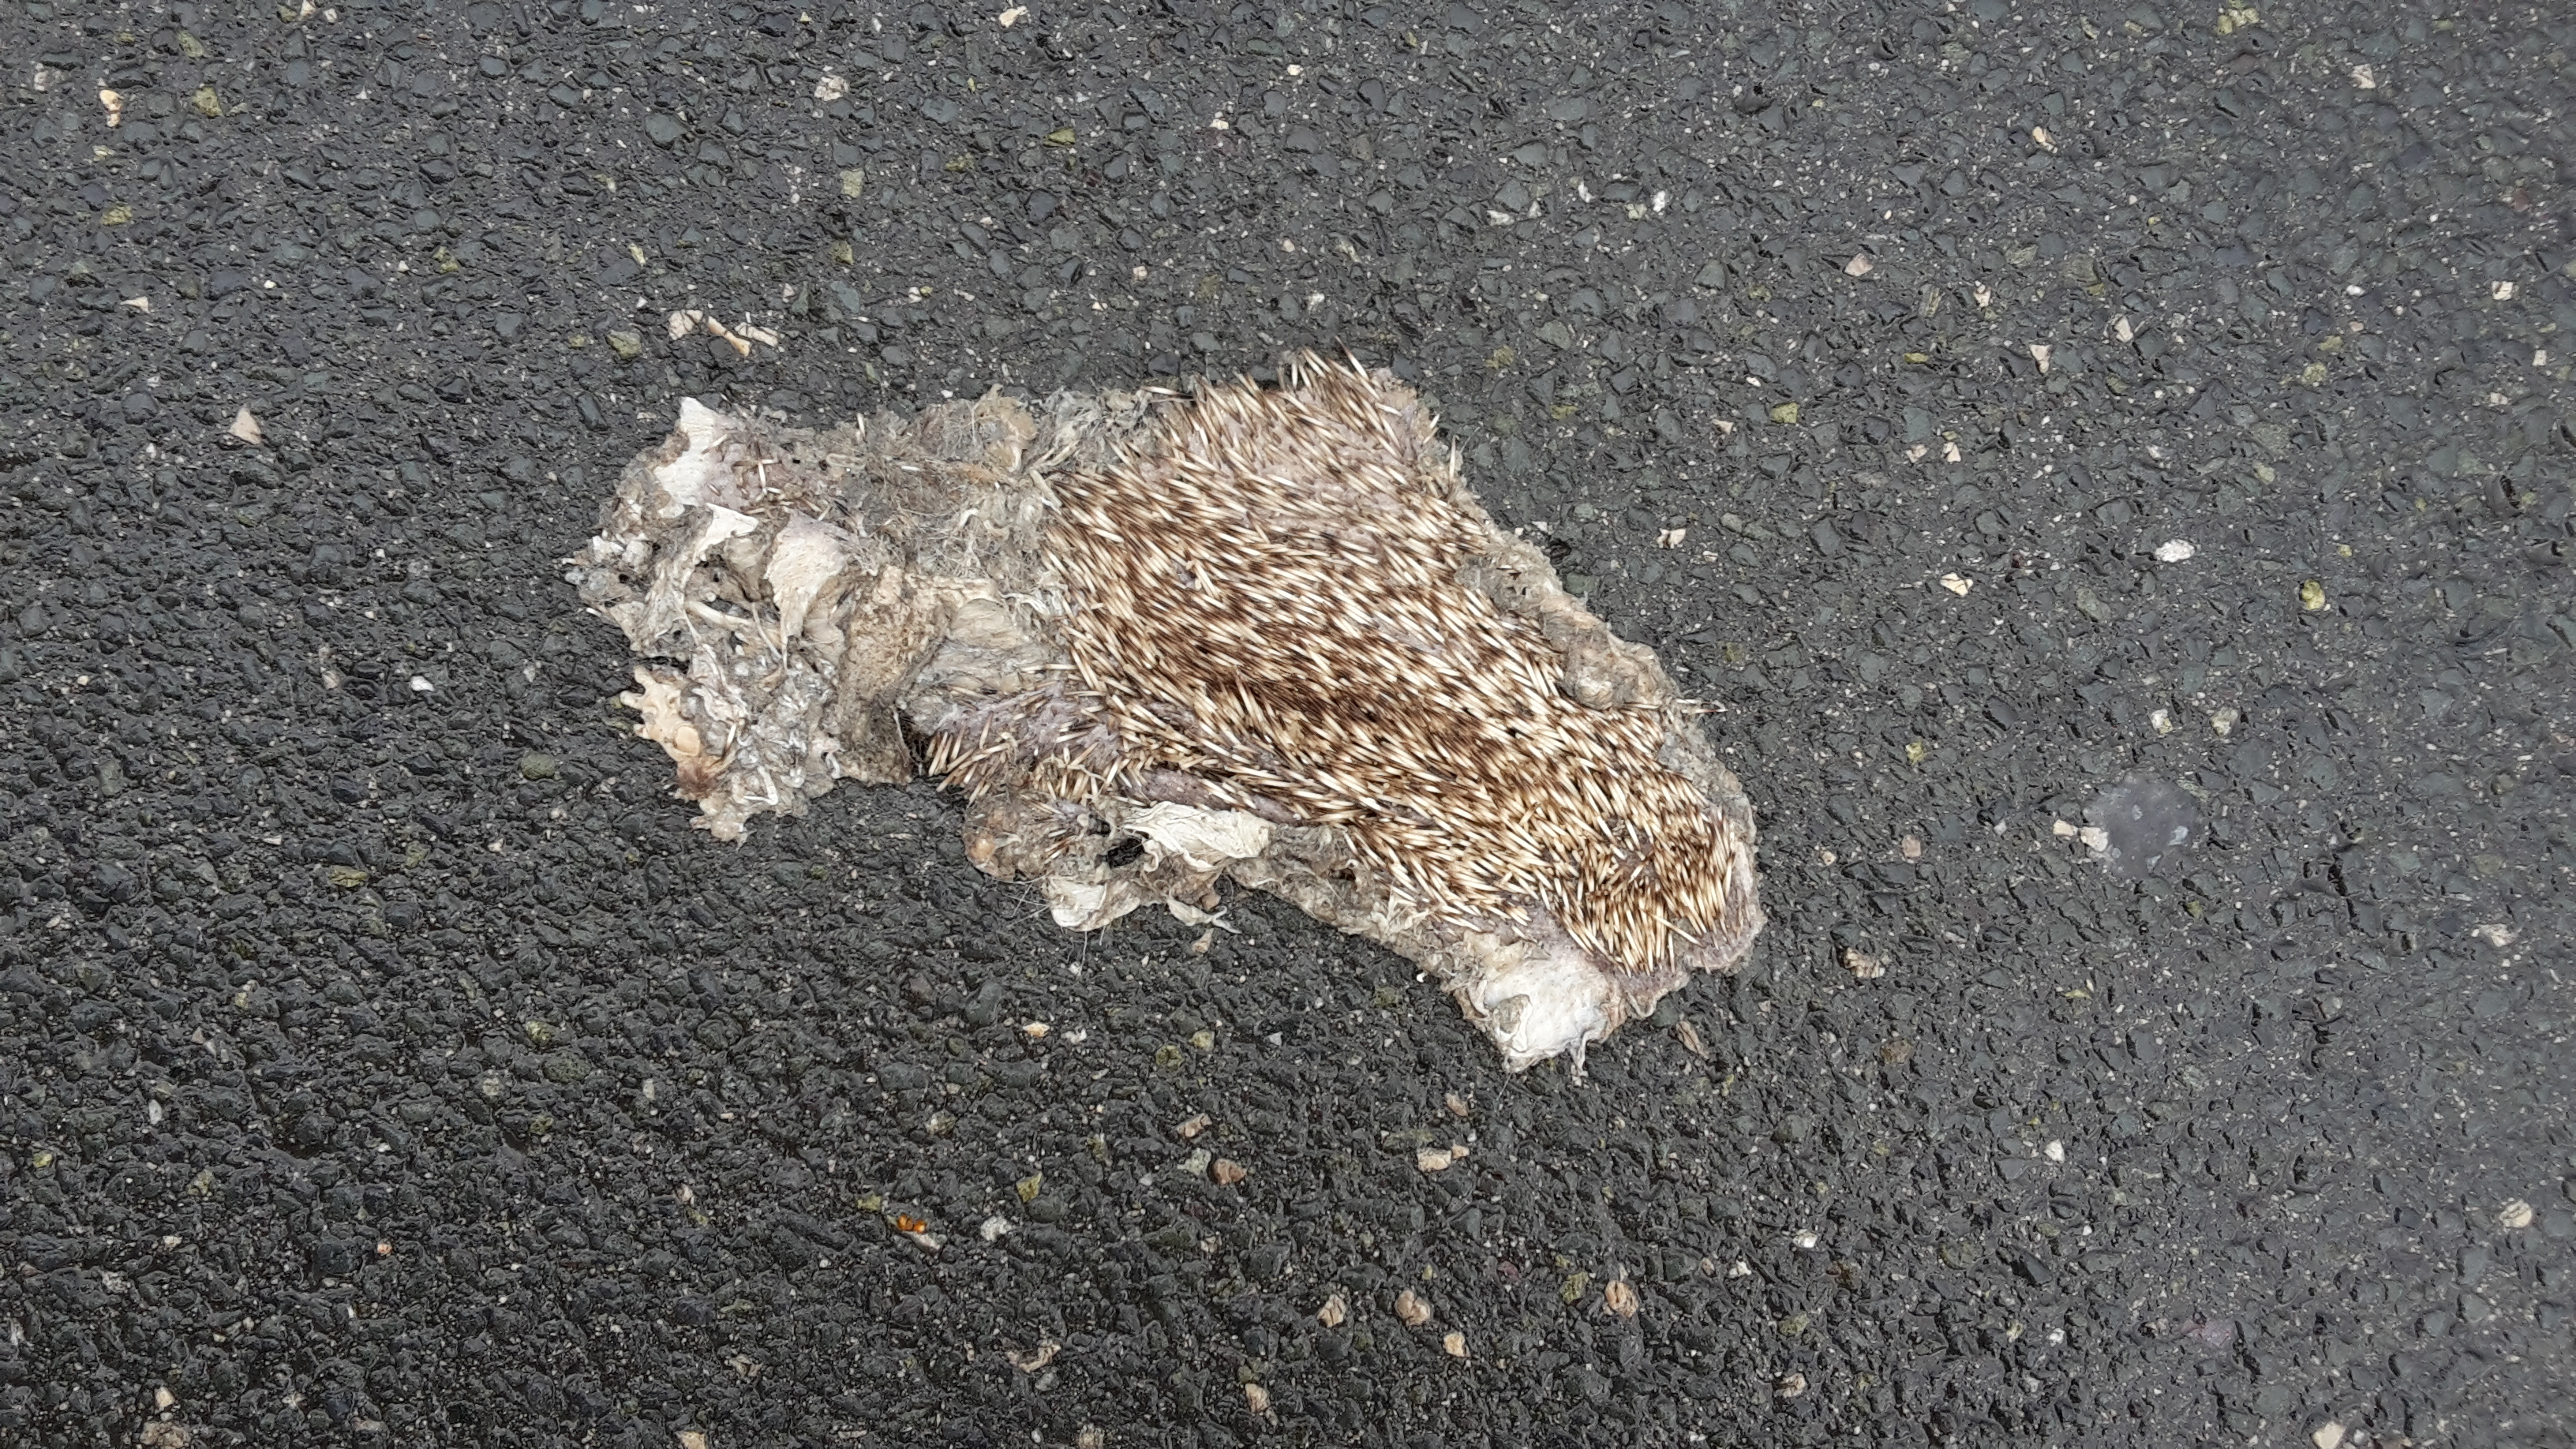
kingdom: Animalia
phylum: Chordata
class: Mammalia
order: Erinaceomorpha
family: Erinaceidae
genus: Erinaceus
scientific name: Erinaceus
